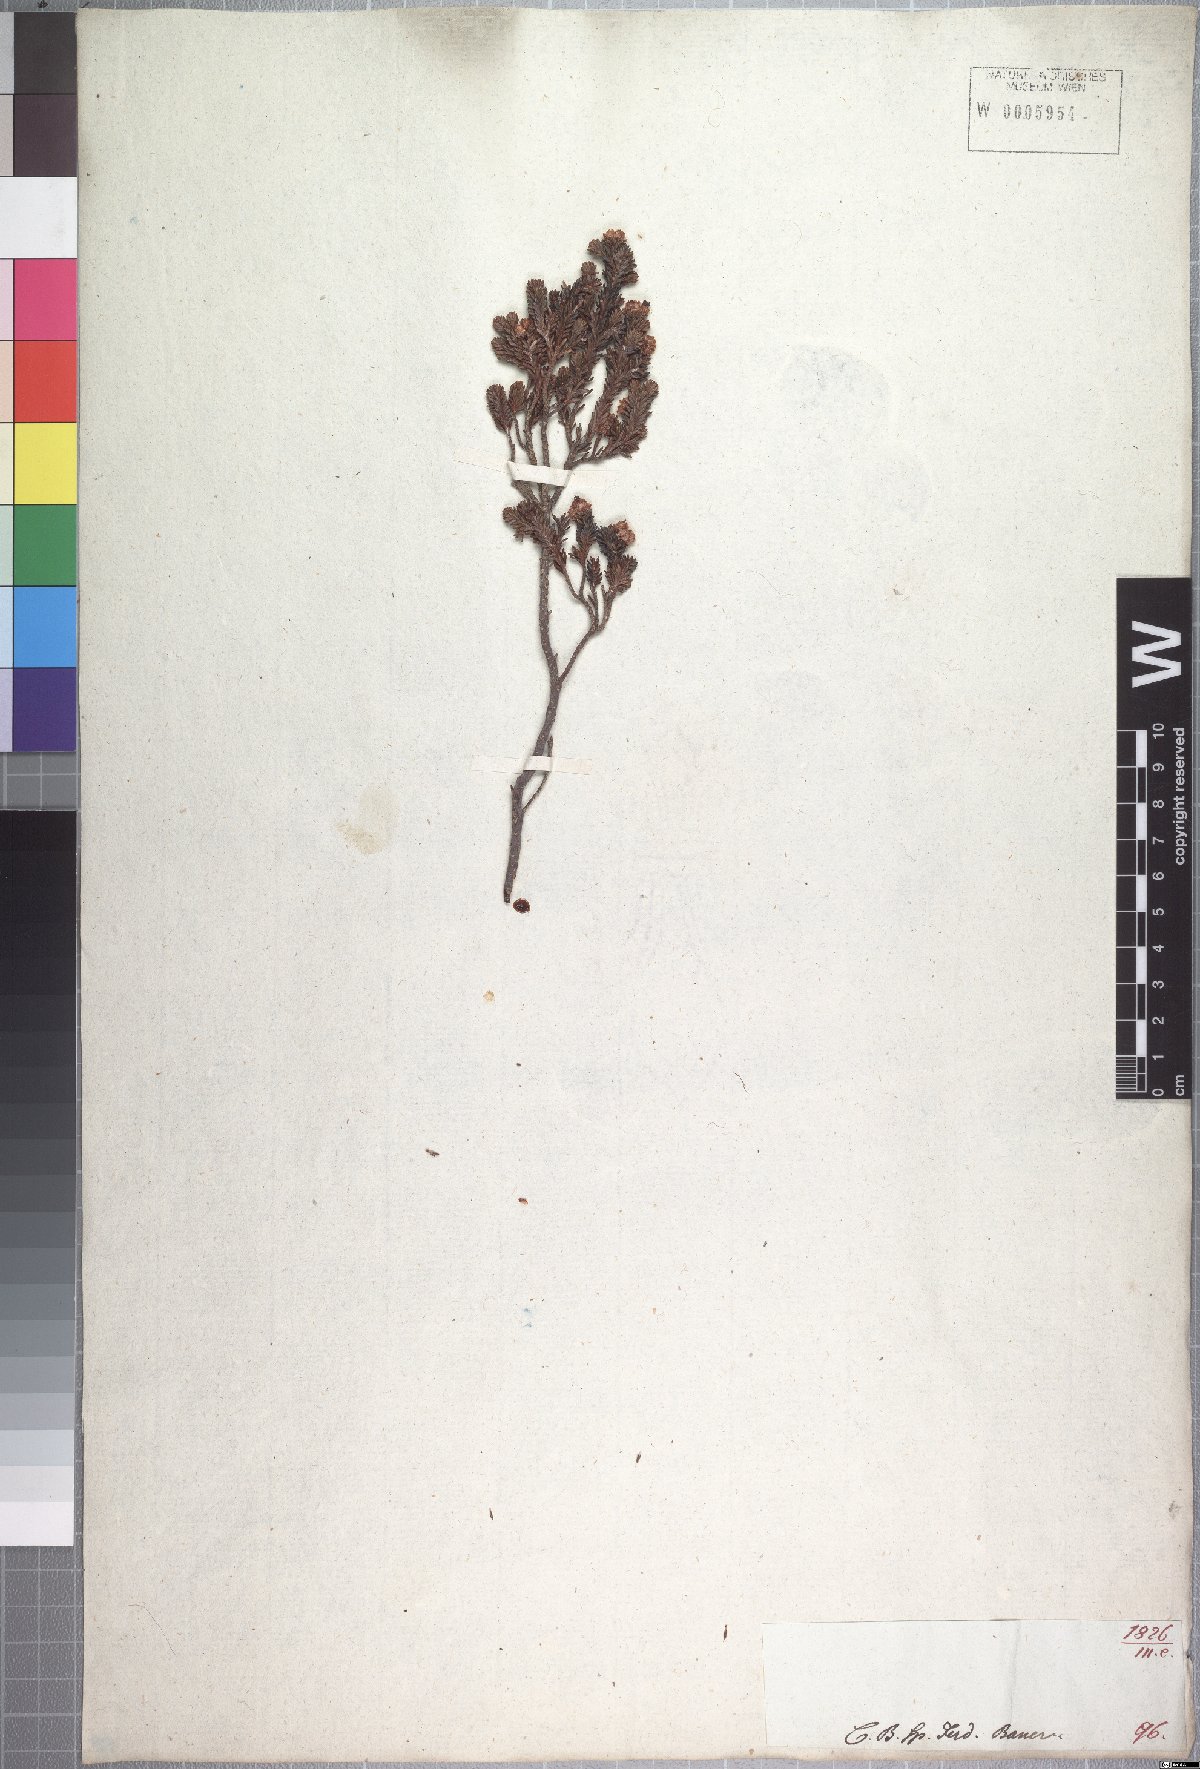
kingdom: Plantae
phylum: Tracheophyta
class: Magnoliopsida
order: Ericales
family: Ericaceae
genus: Erica
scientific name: Erica sexfaria
